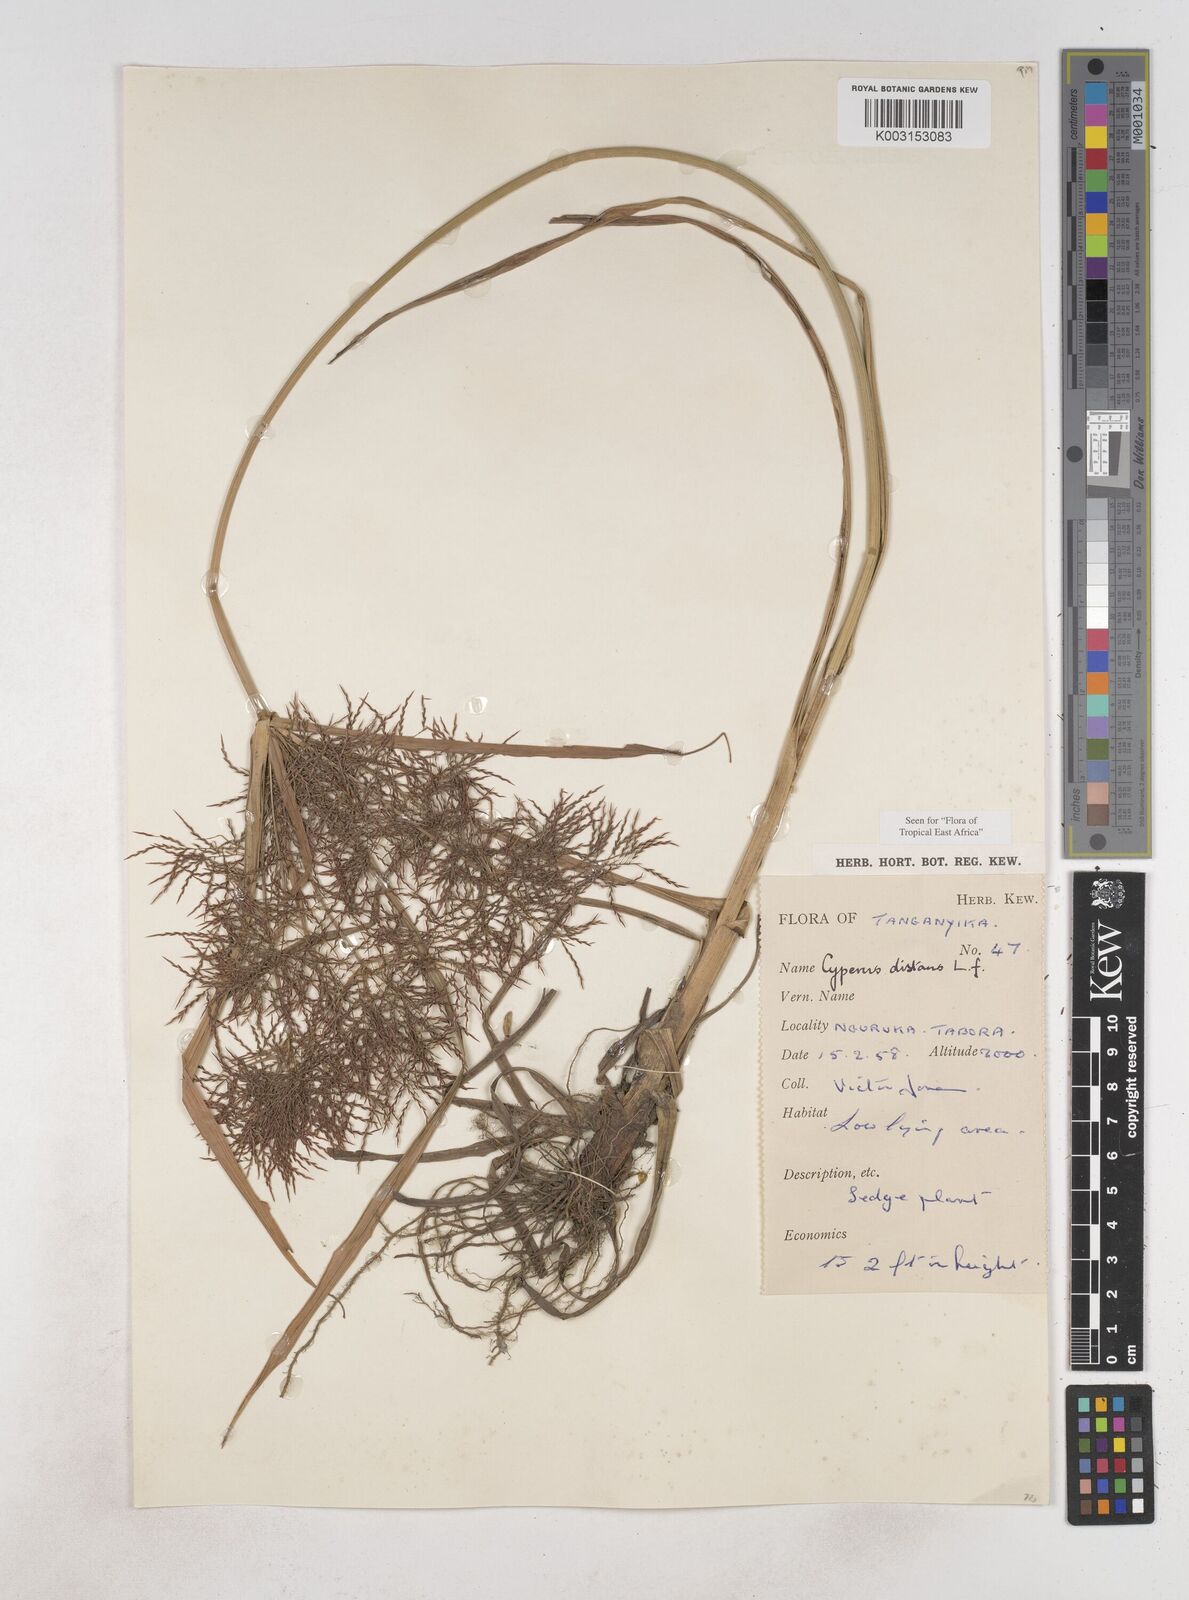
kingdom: Plantae
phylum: Tracheophyta
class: Liliopsida
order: Poales
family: Cyperaceae
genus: Cyperus
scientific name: Cyperus distans
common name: Slender cyperus
